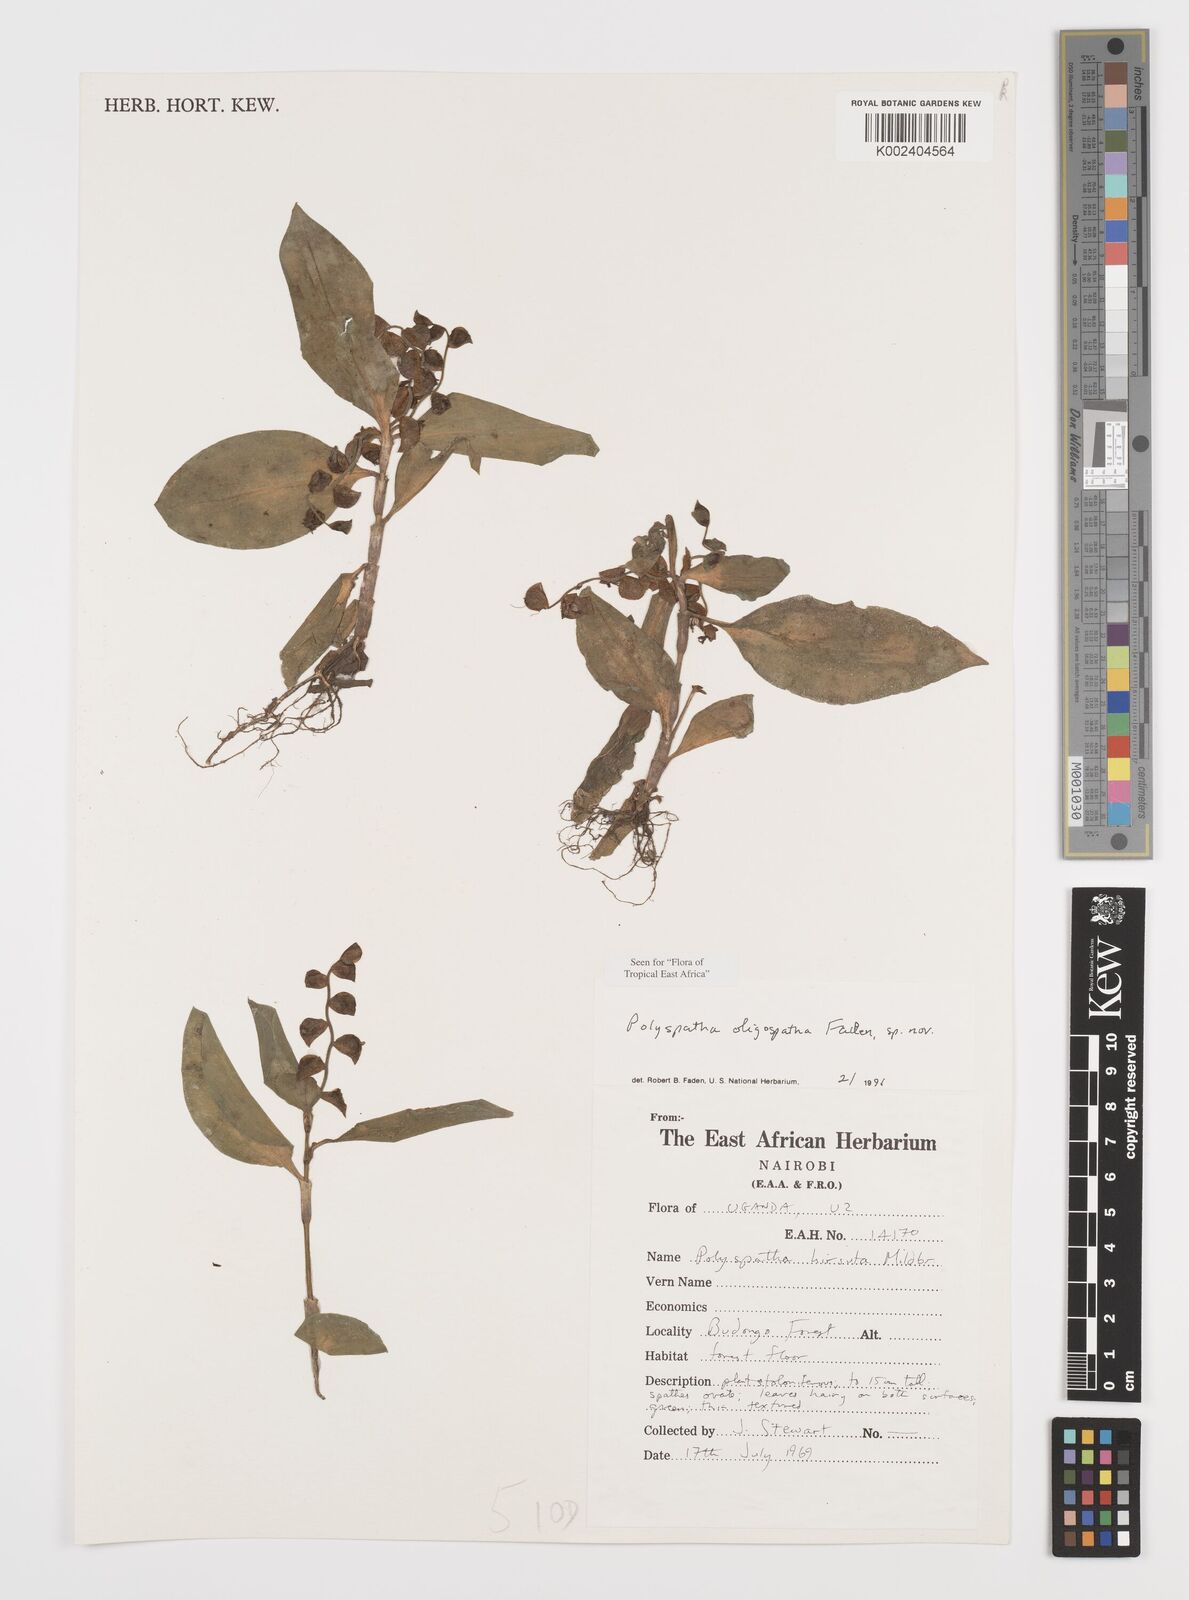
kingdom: Plantae
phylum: Tracheophyta
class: Liliopsida
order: Commelinales
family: Commelinaceae
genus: Polyspatha
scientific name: Polyspatha oligospatha
